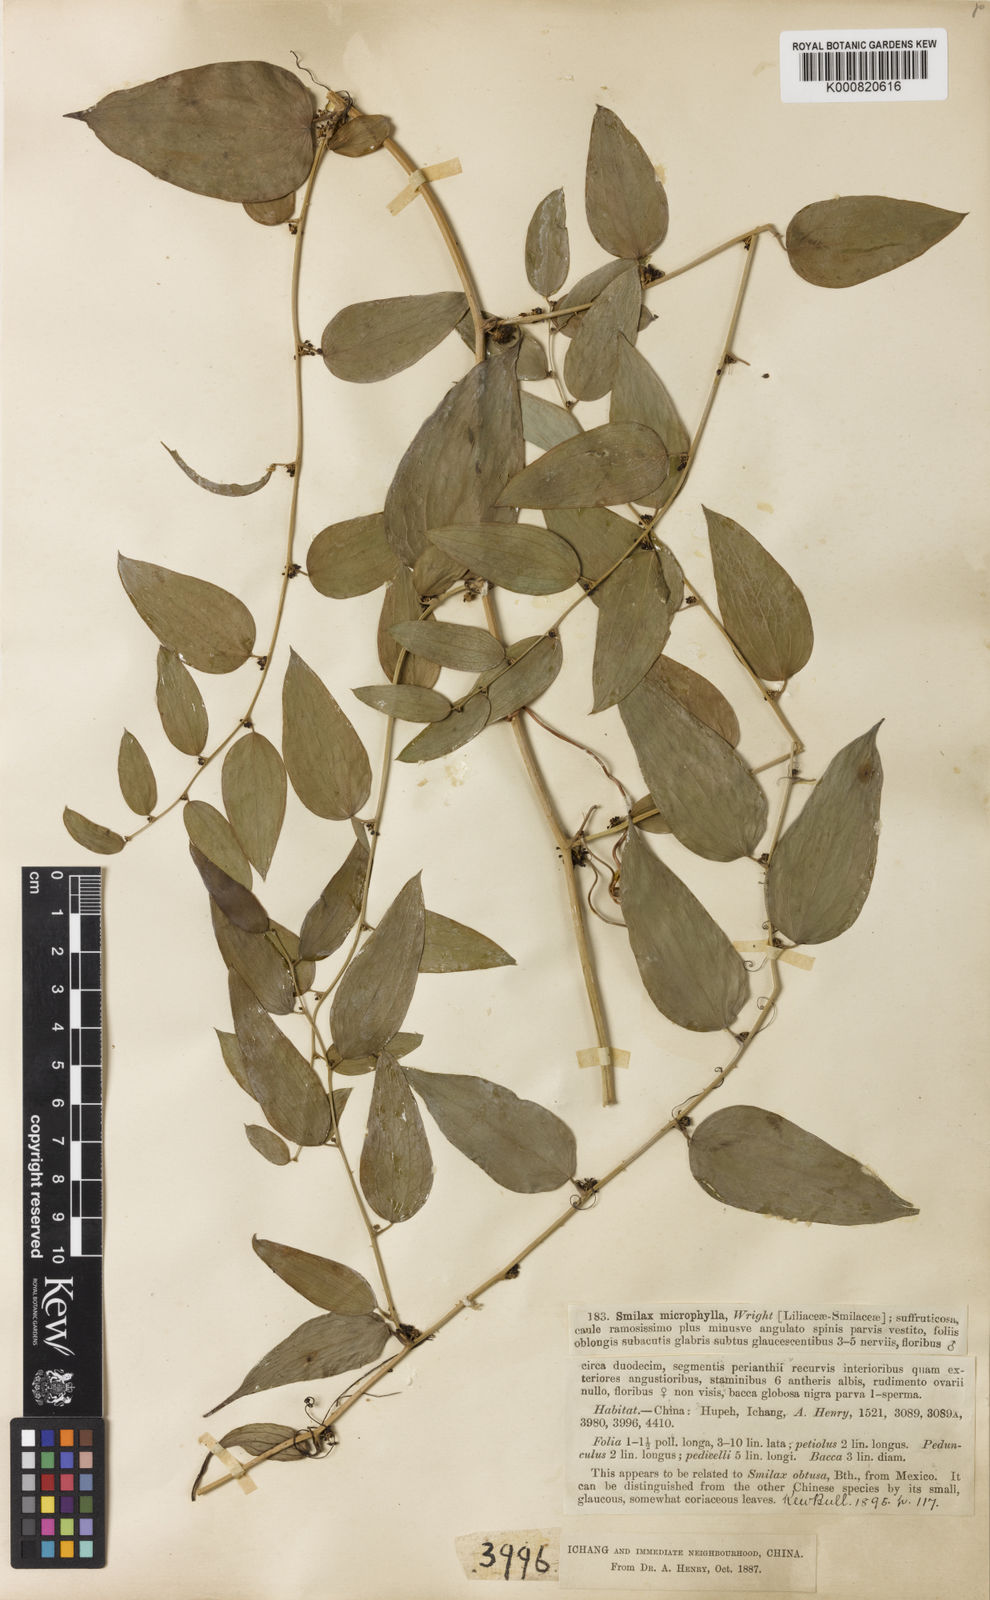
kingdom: Plantae
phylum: Tracheophyta
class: Liliopsida
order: Liliales
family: Smilacaceae
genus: Smilax
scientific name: Smilax microphylla
